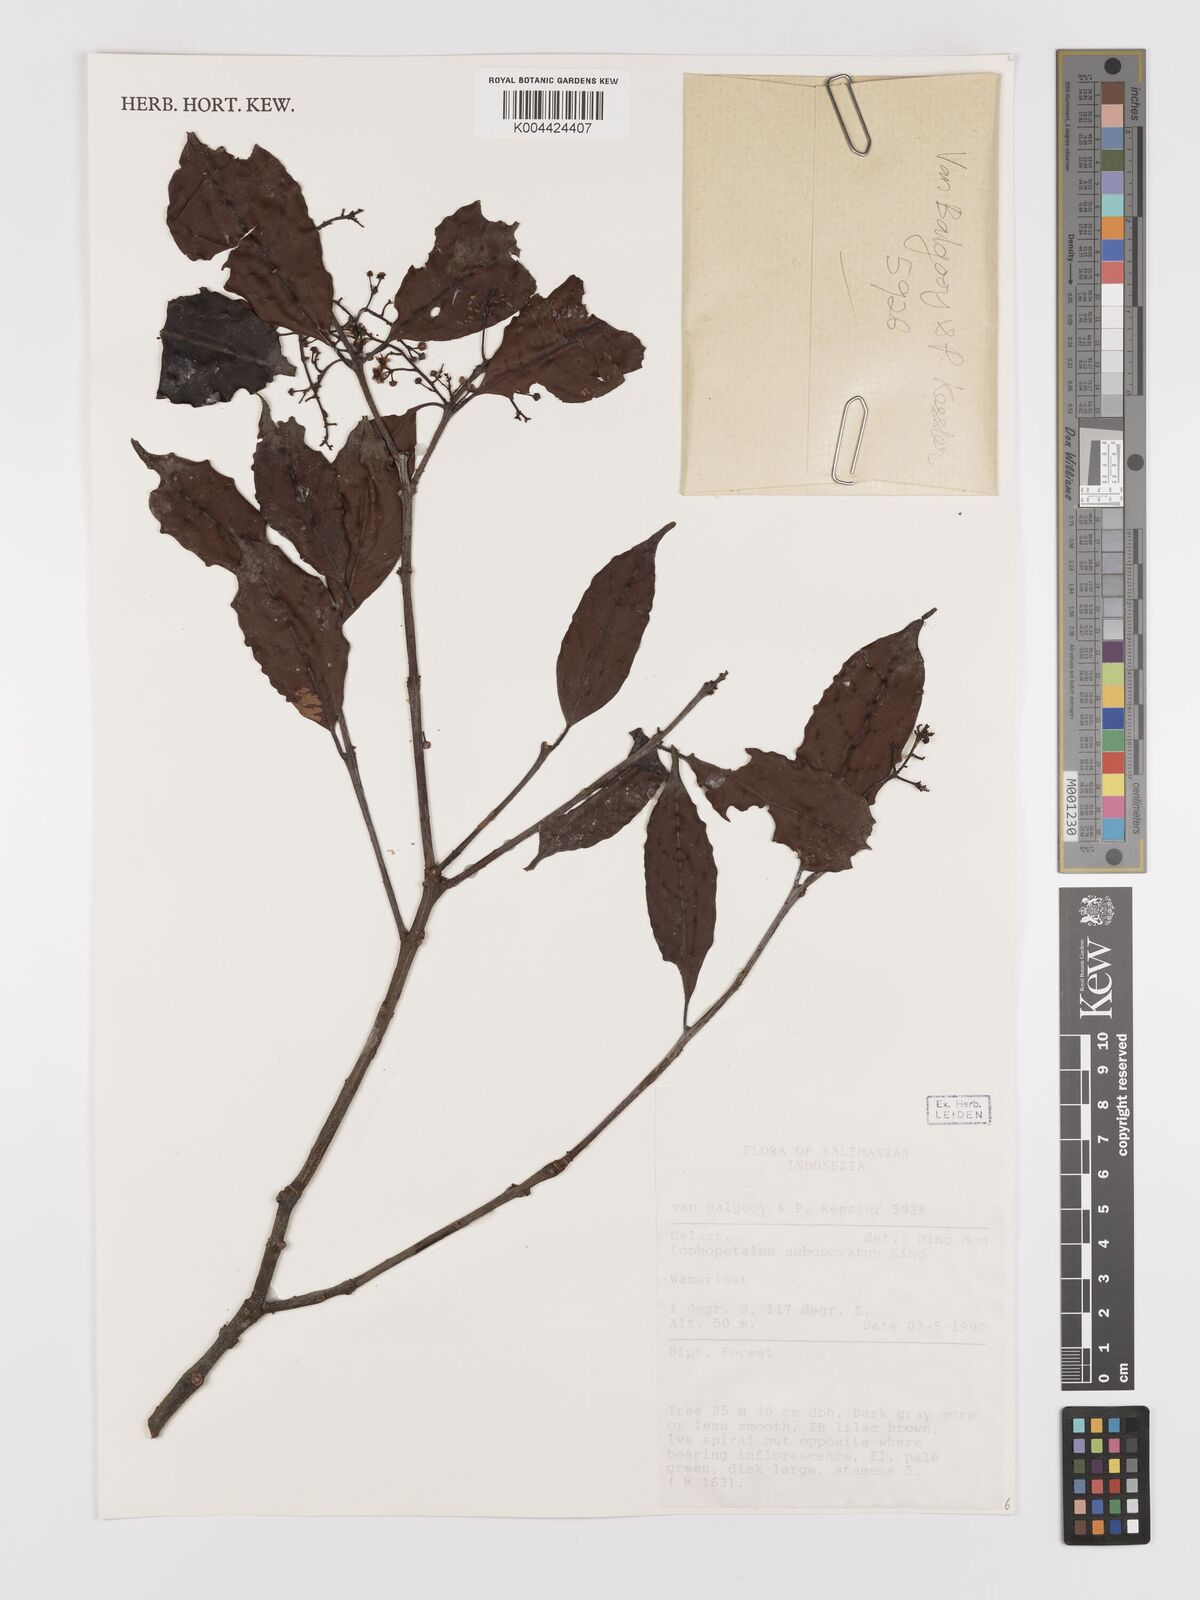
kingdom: Plantae
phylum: Tracheophyta
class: Magnoliopsida
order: Celastrales
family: Celastraceae
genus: Lophopetalum
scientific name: Lophopetalum
